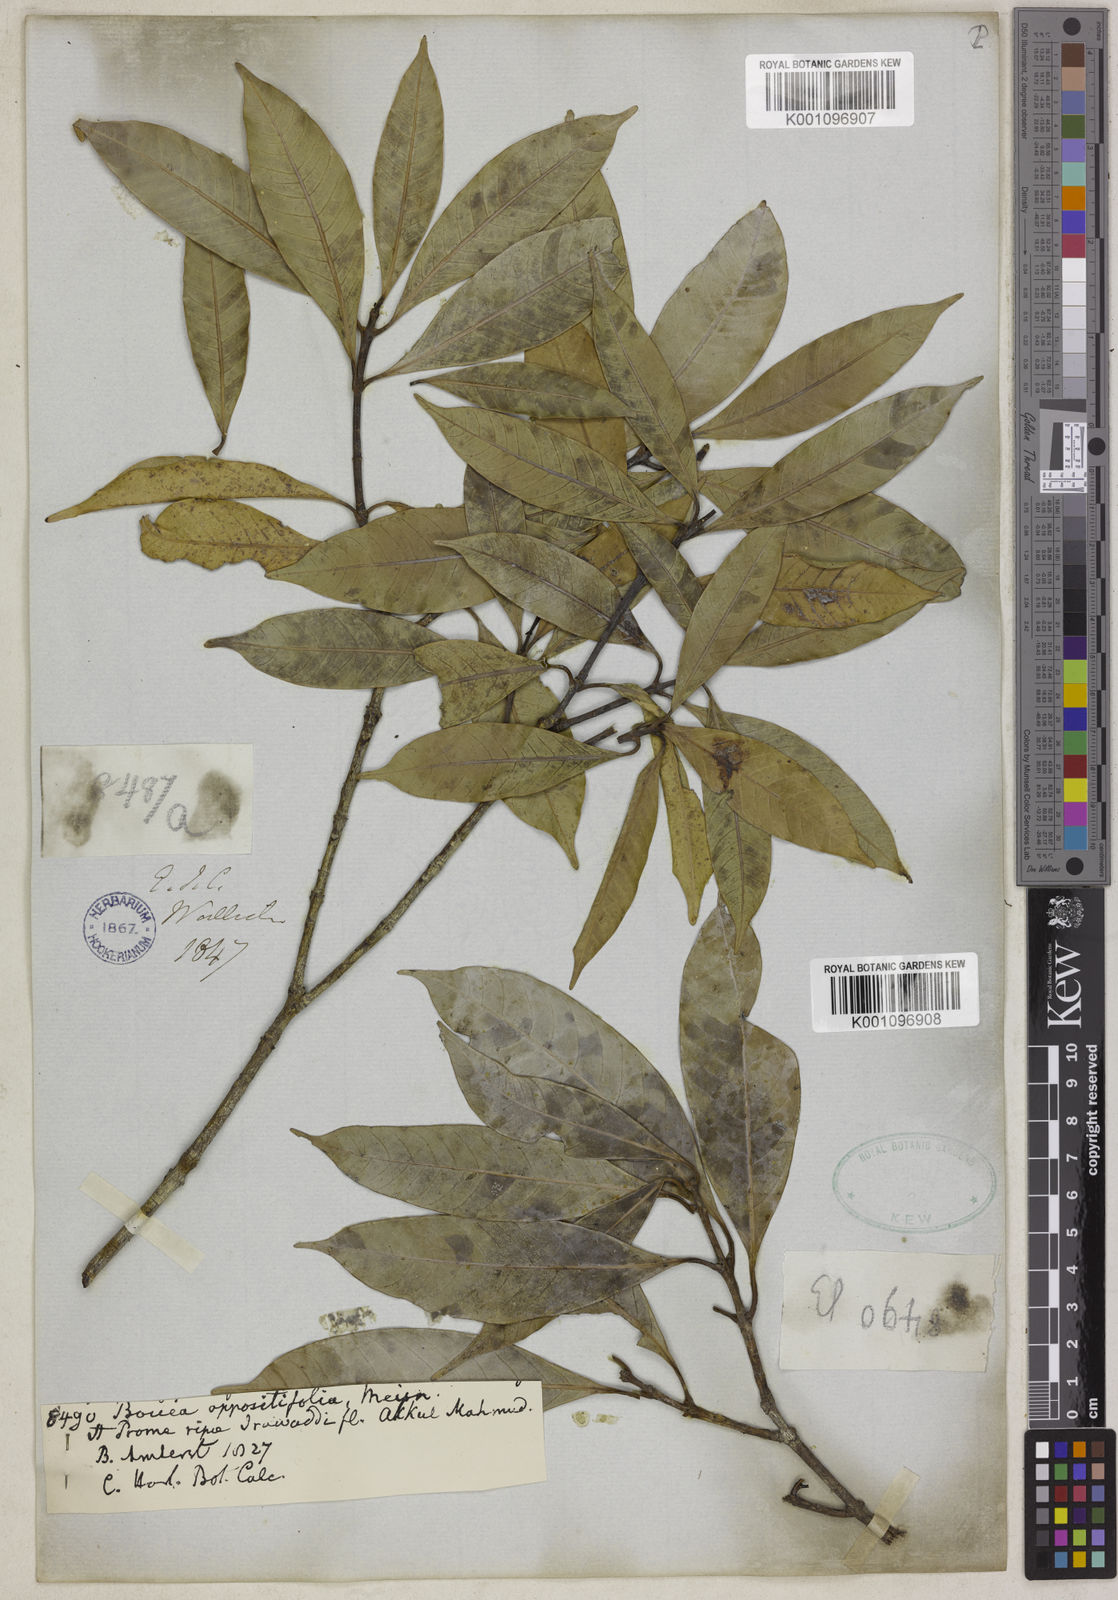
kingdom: Plantae
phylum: Tracheophyta
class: Magnoliopsida
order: Sapindales
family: Anacardiaceae
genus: Bouea
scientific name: Bouea oppositifolia
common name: Narrow-leaved kundang
